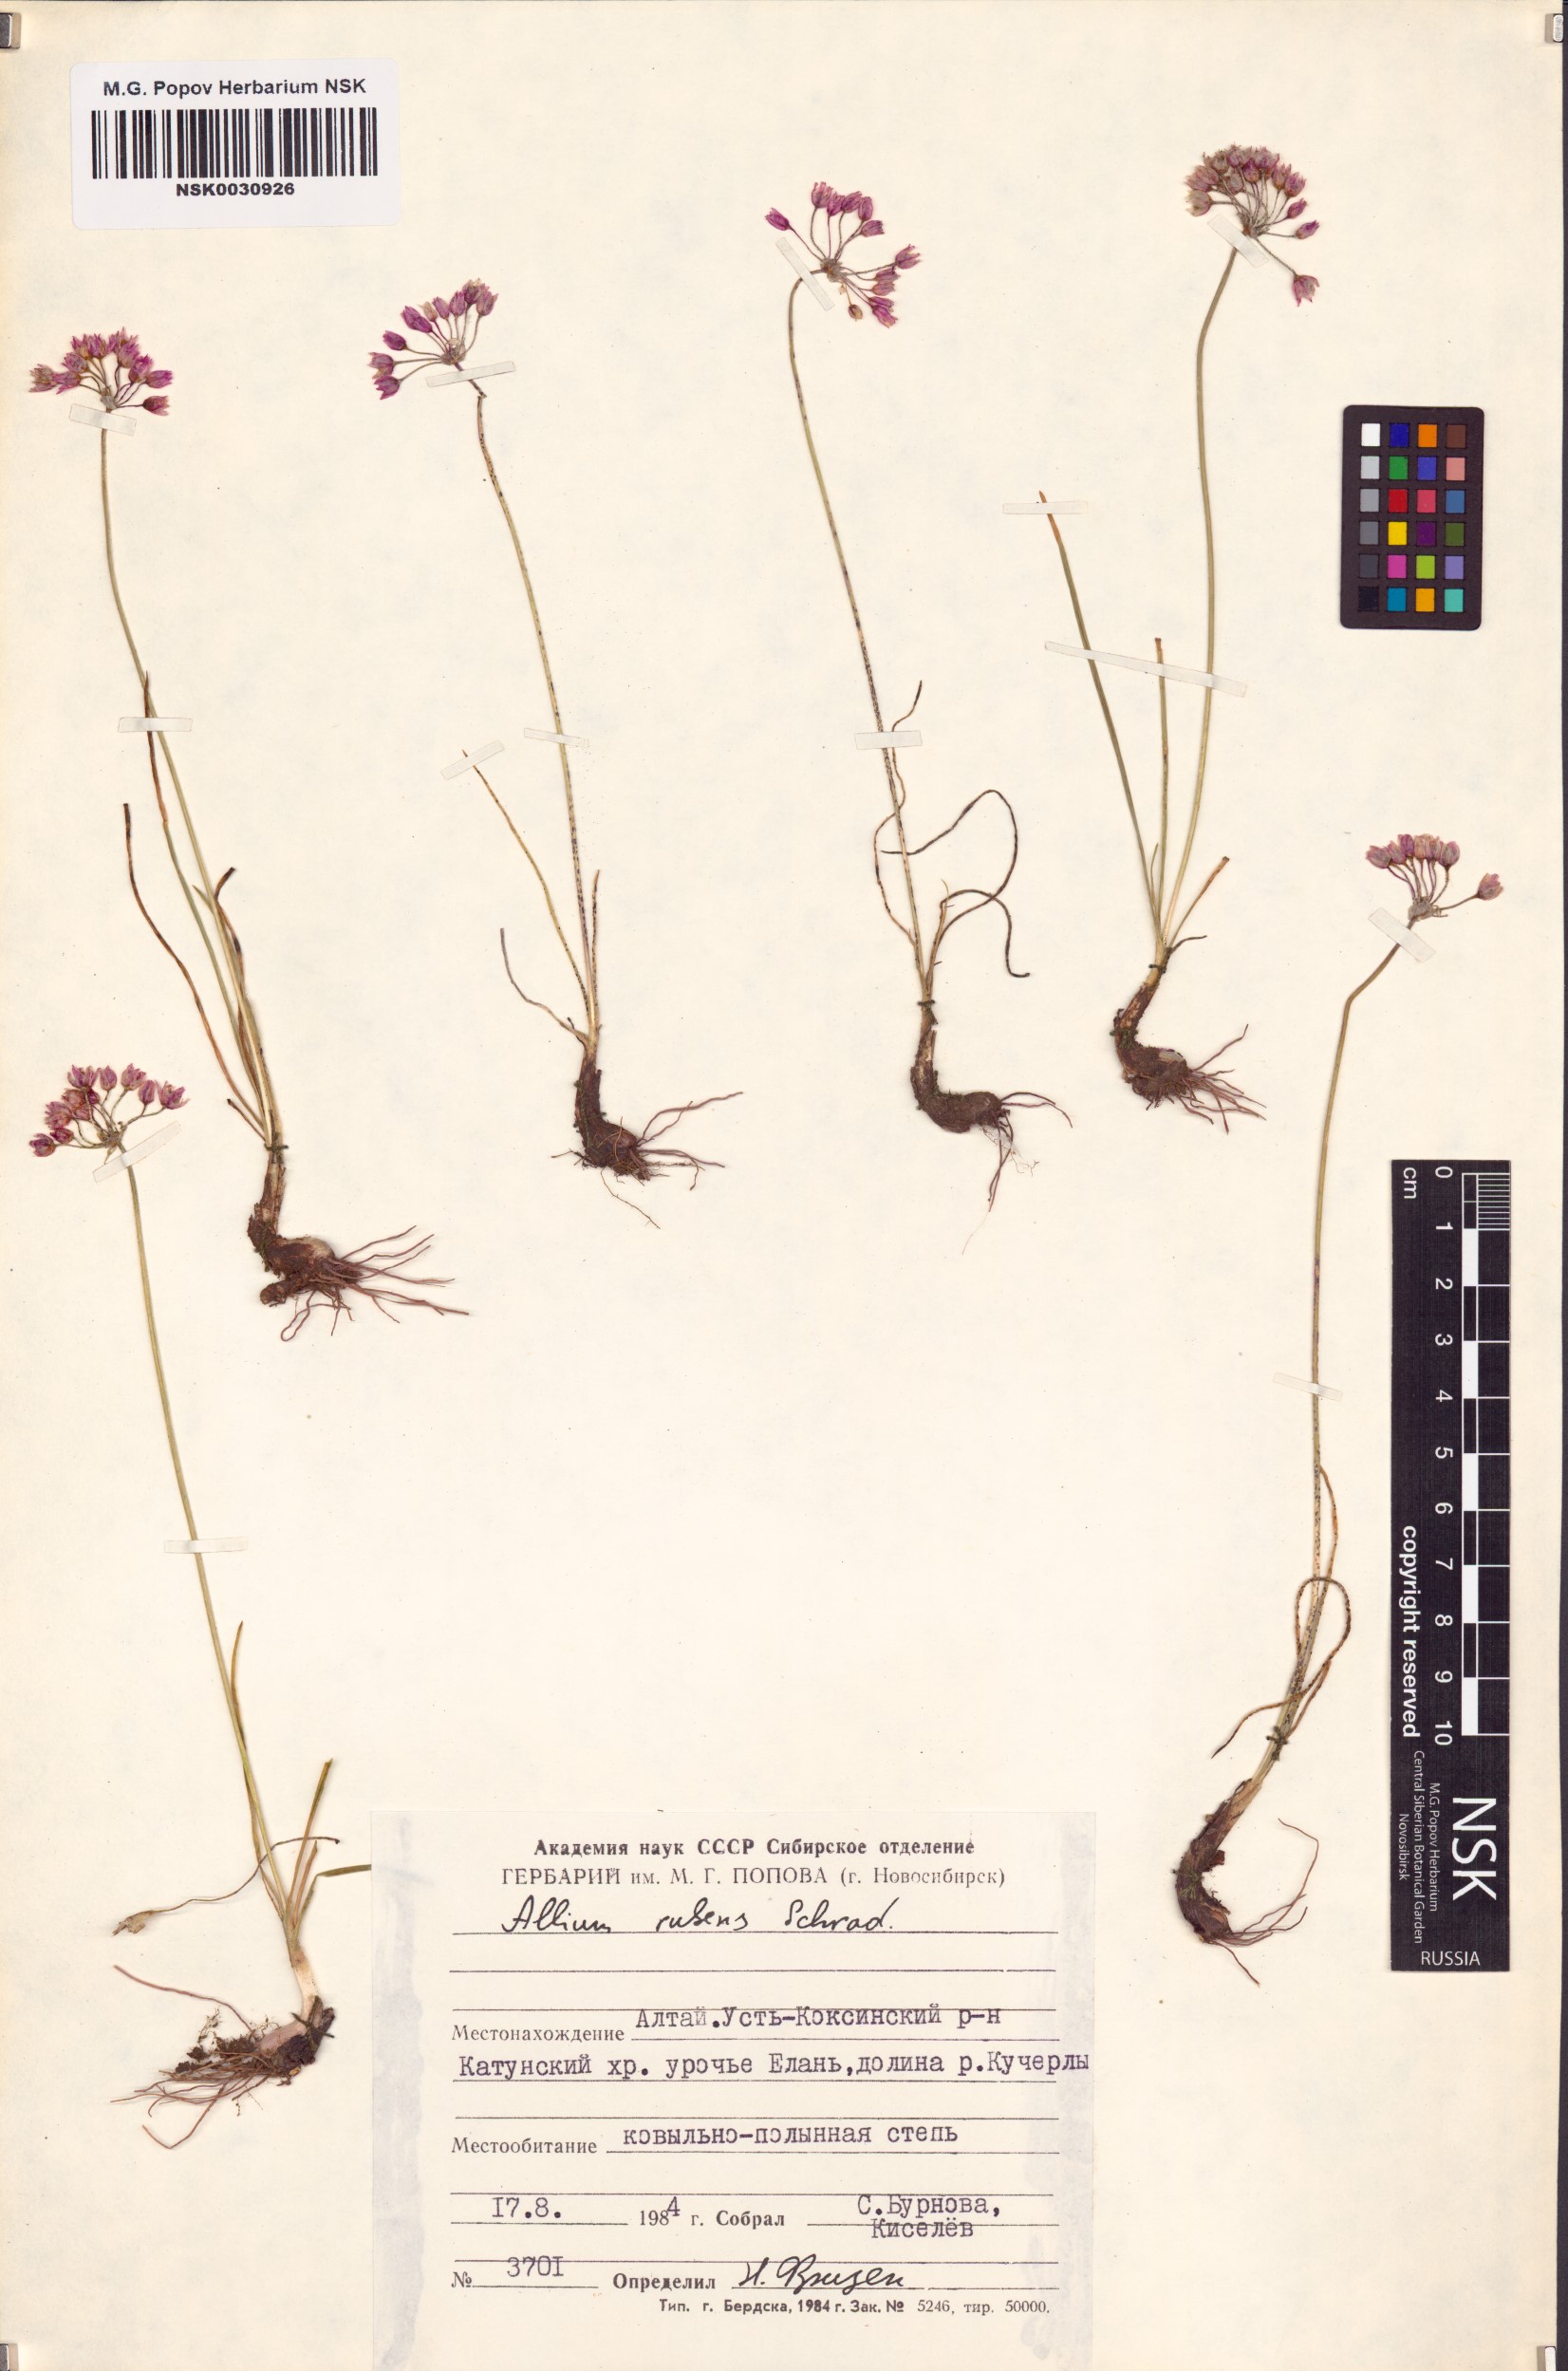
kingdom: Plantae
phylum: Tracheophyta
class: Liliopsida
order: Asparagales
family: Amaryllidaceae
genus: Allium
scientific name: Allium rubens
